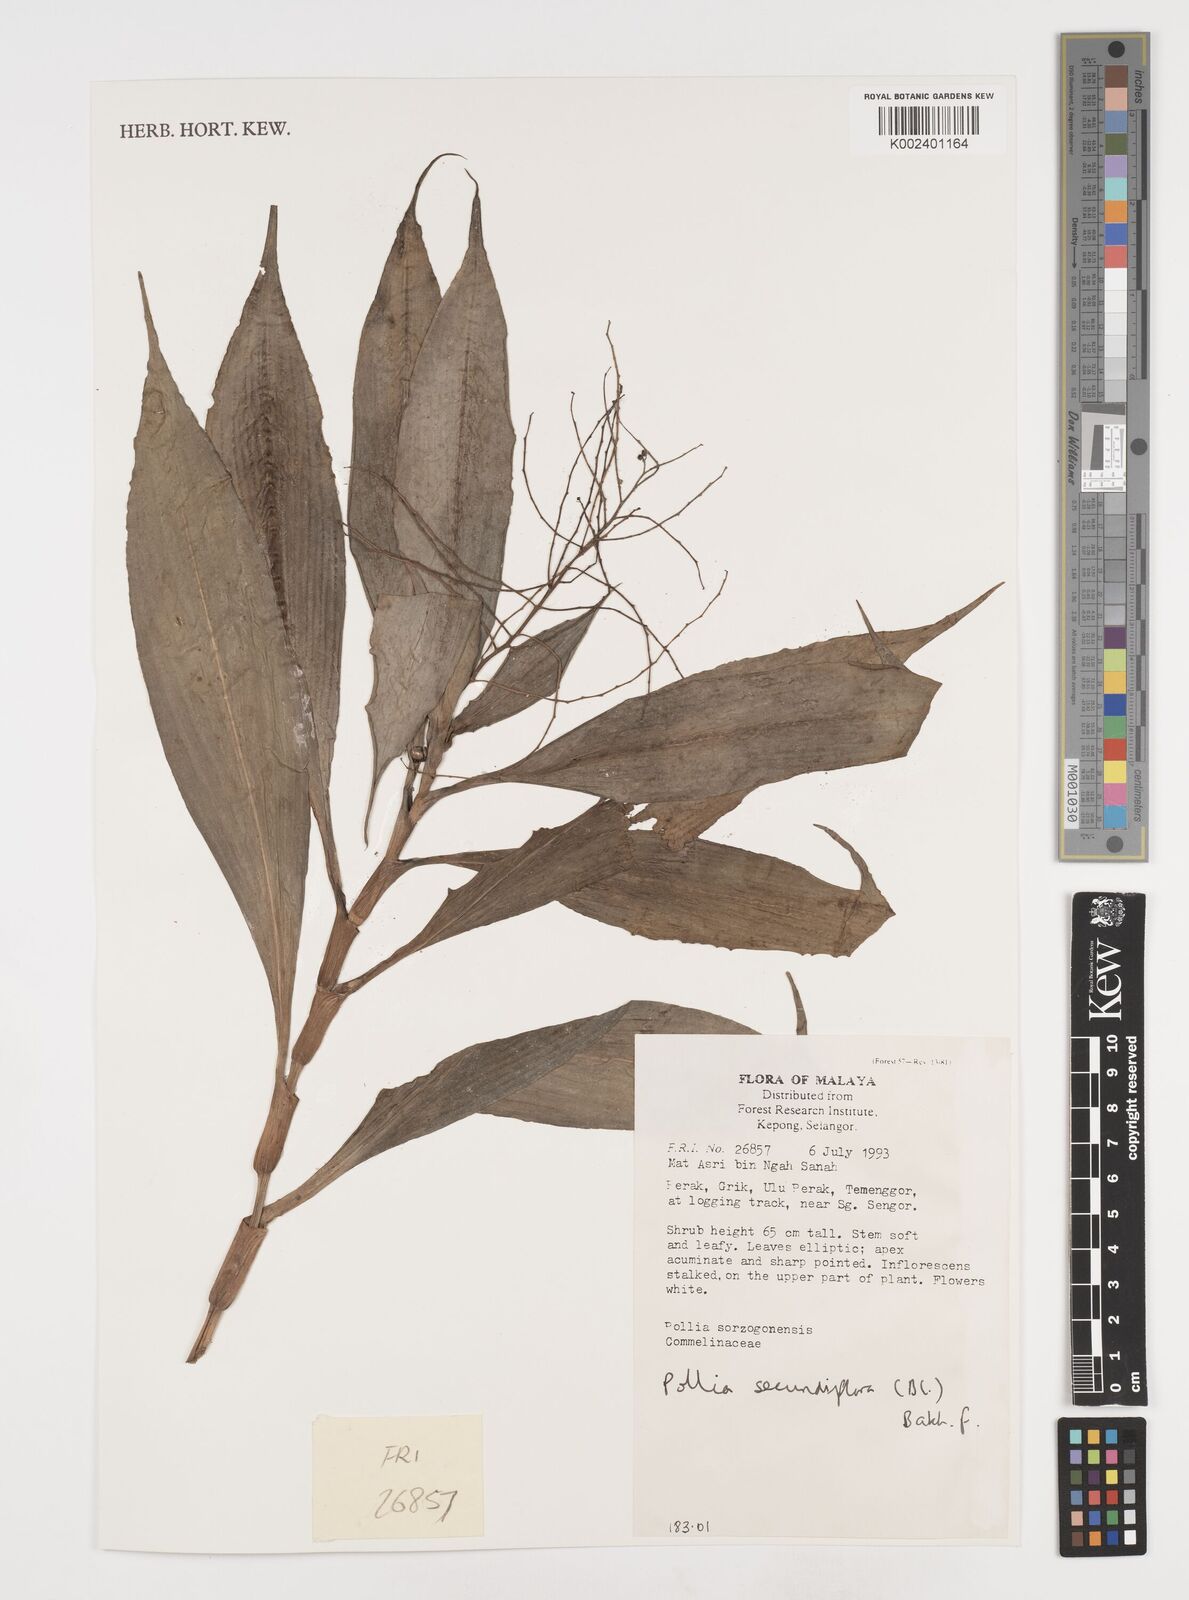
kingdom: Plantae
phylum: Tracheophyta
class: Liliopsida
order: Commelinales
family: Commelinaceae
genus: Pollia
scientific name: Pollia secundiflora
